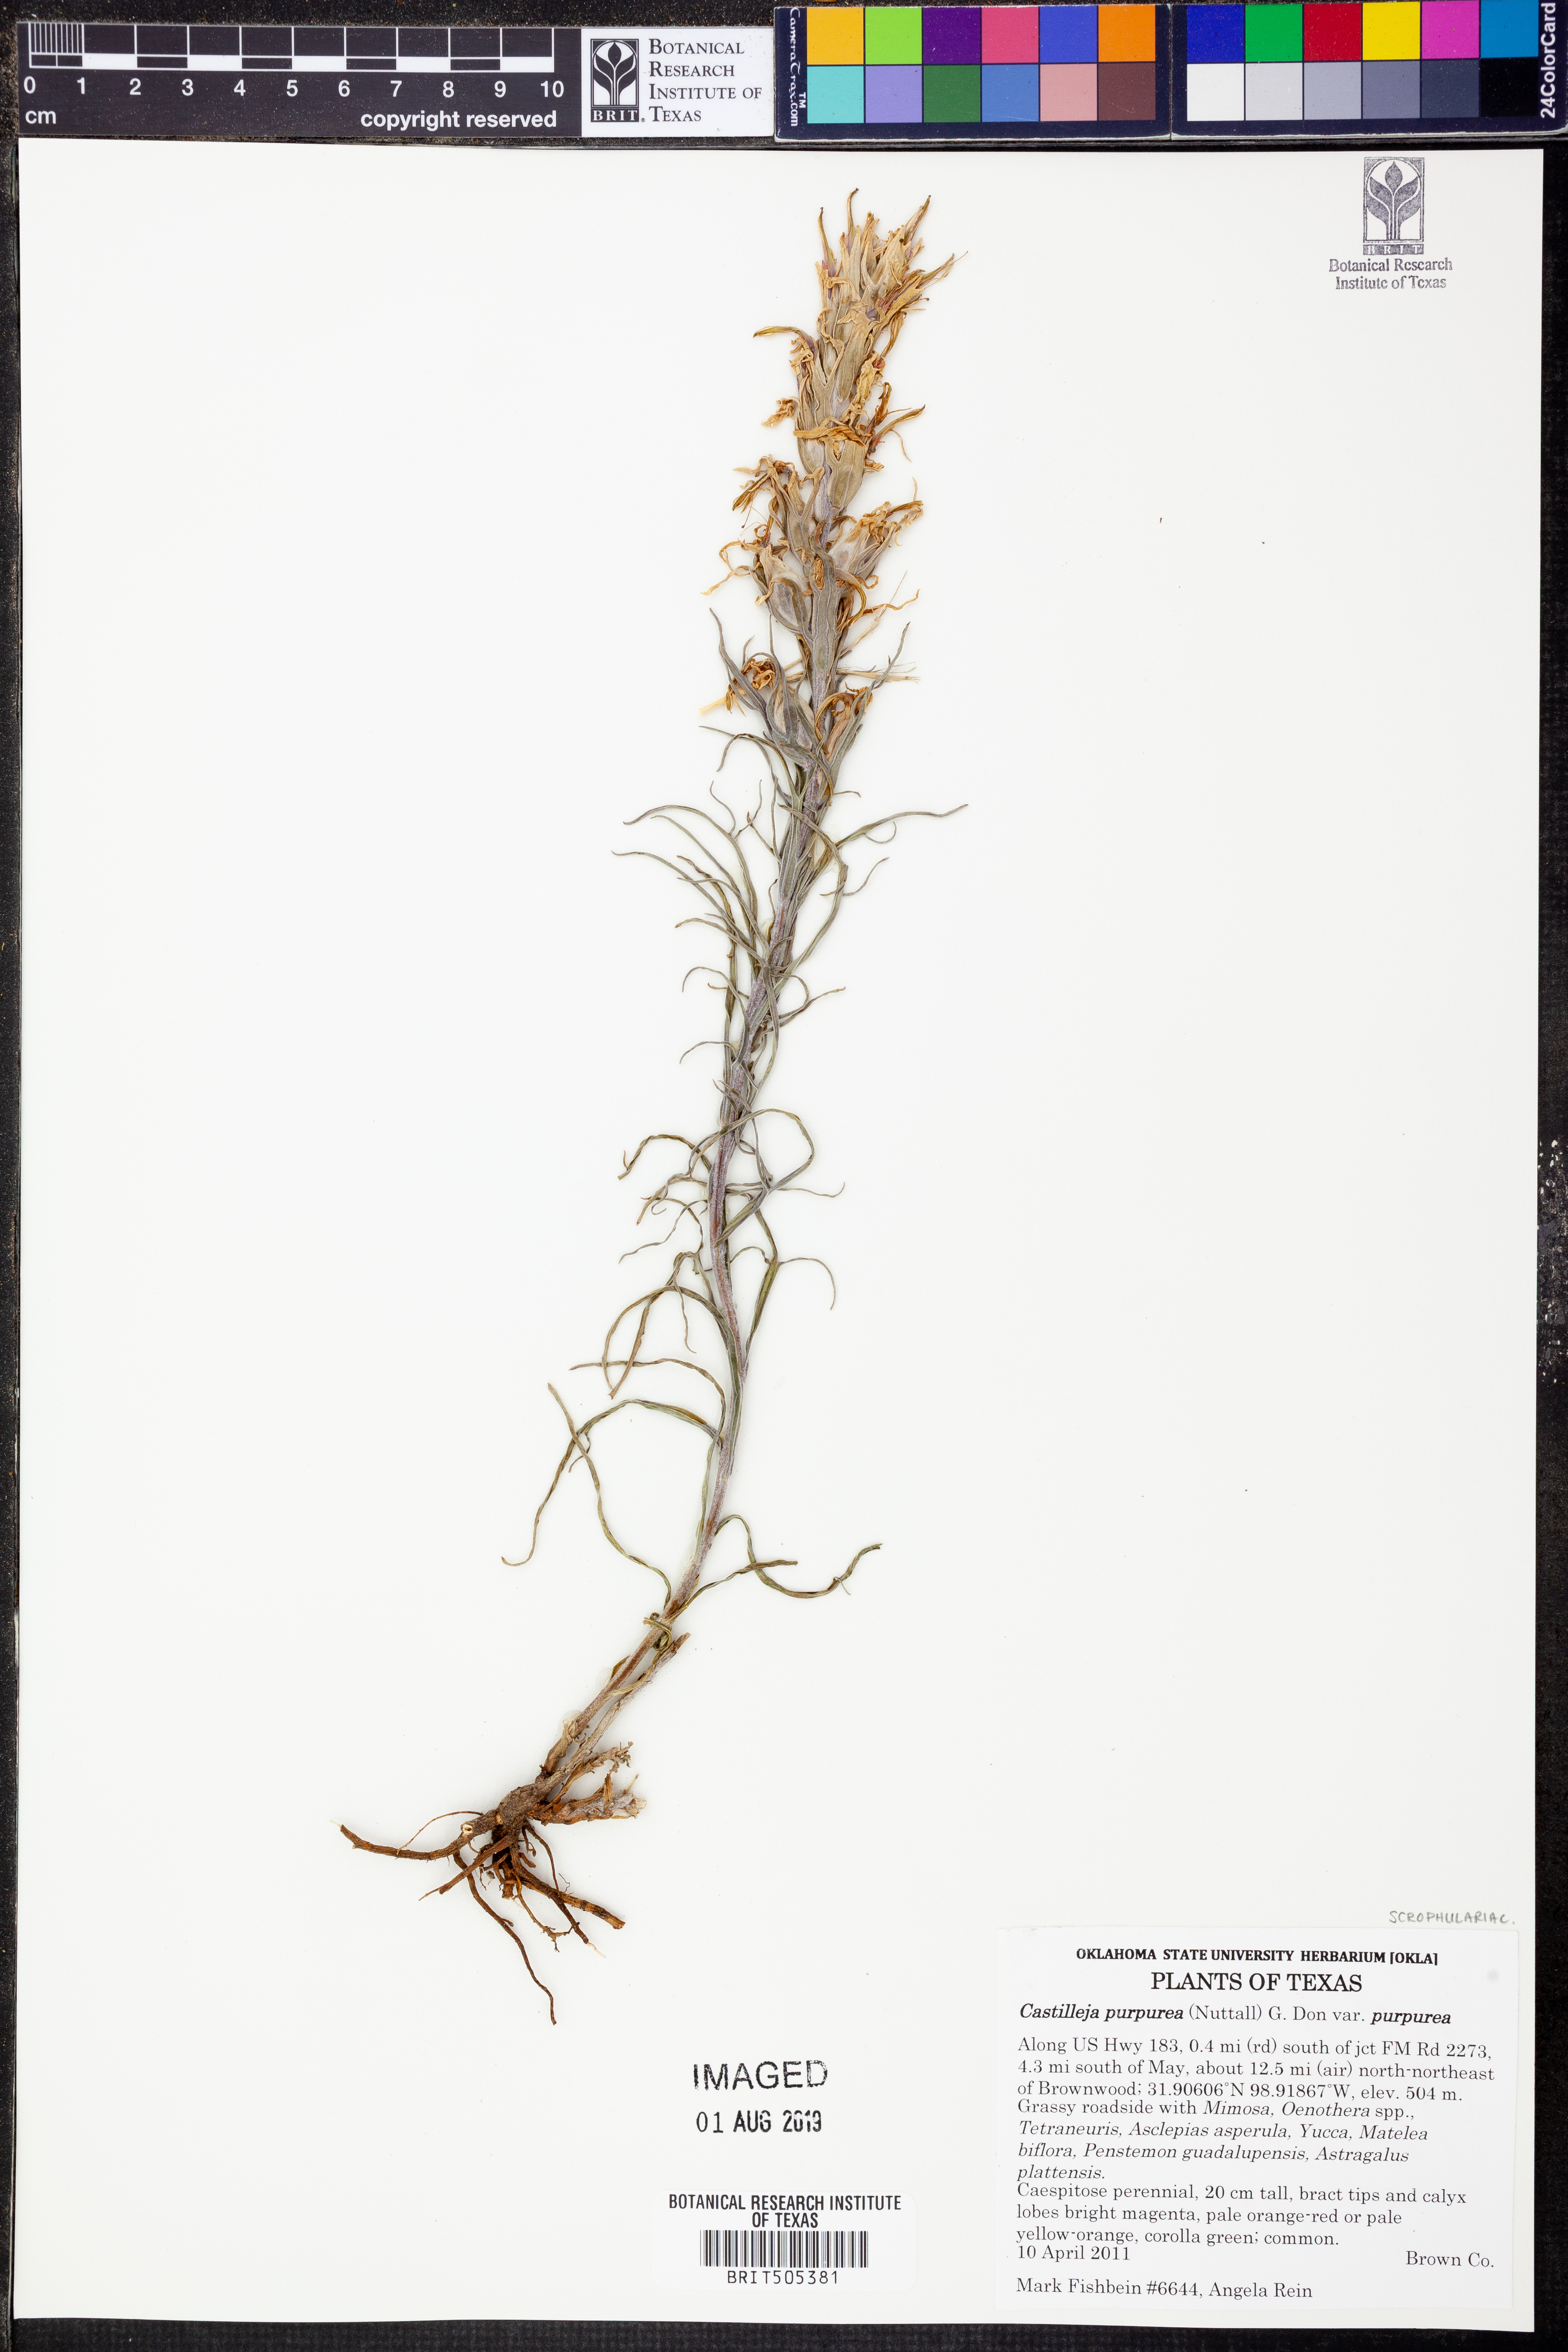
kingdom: Plantae
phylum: Tracheophyta
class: Magnoliopsida
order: Lamiales
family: Orobanchaceae
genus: Castilleja
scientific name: Castilleja purpurea
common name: Plains paintbrush
